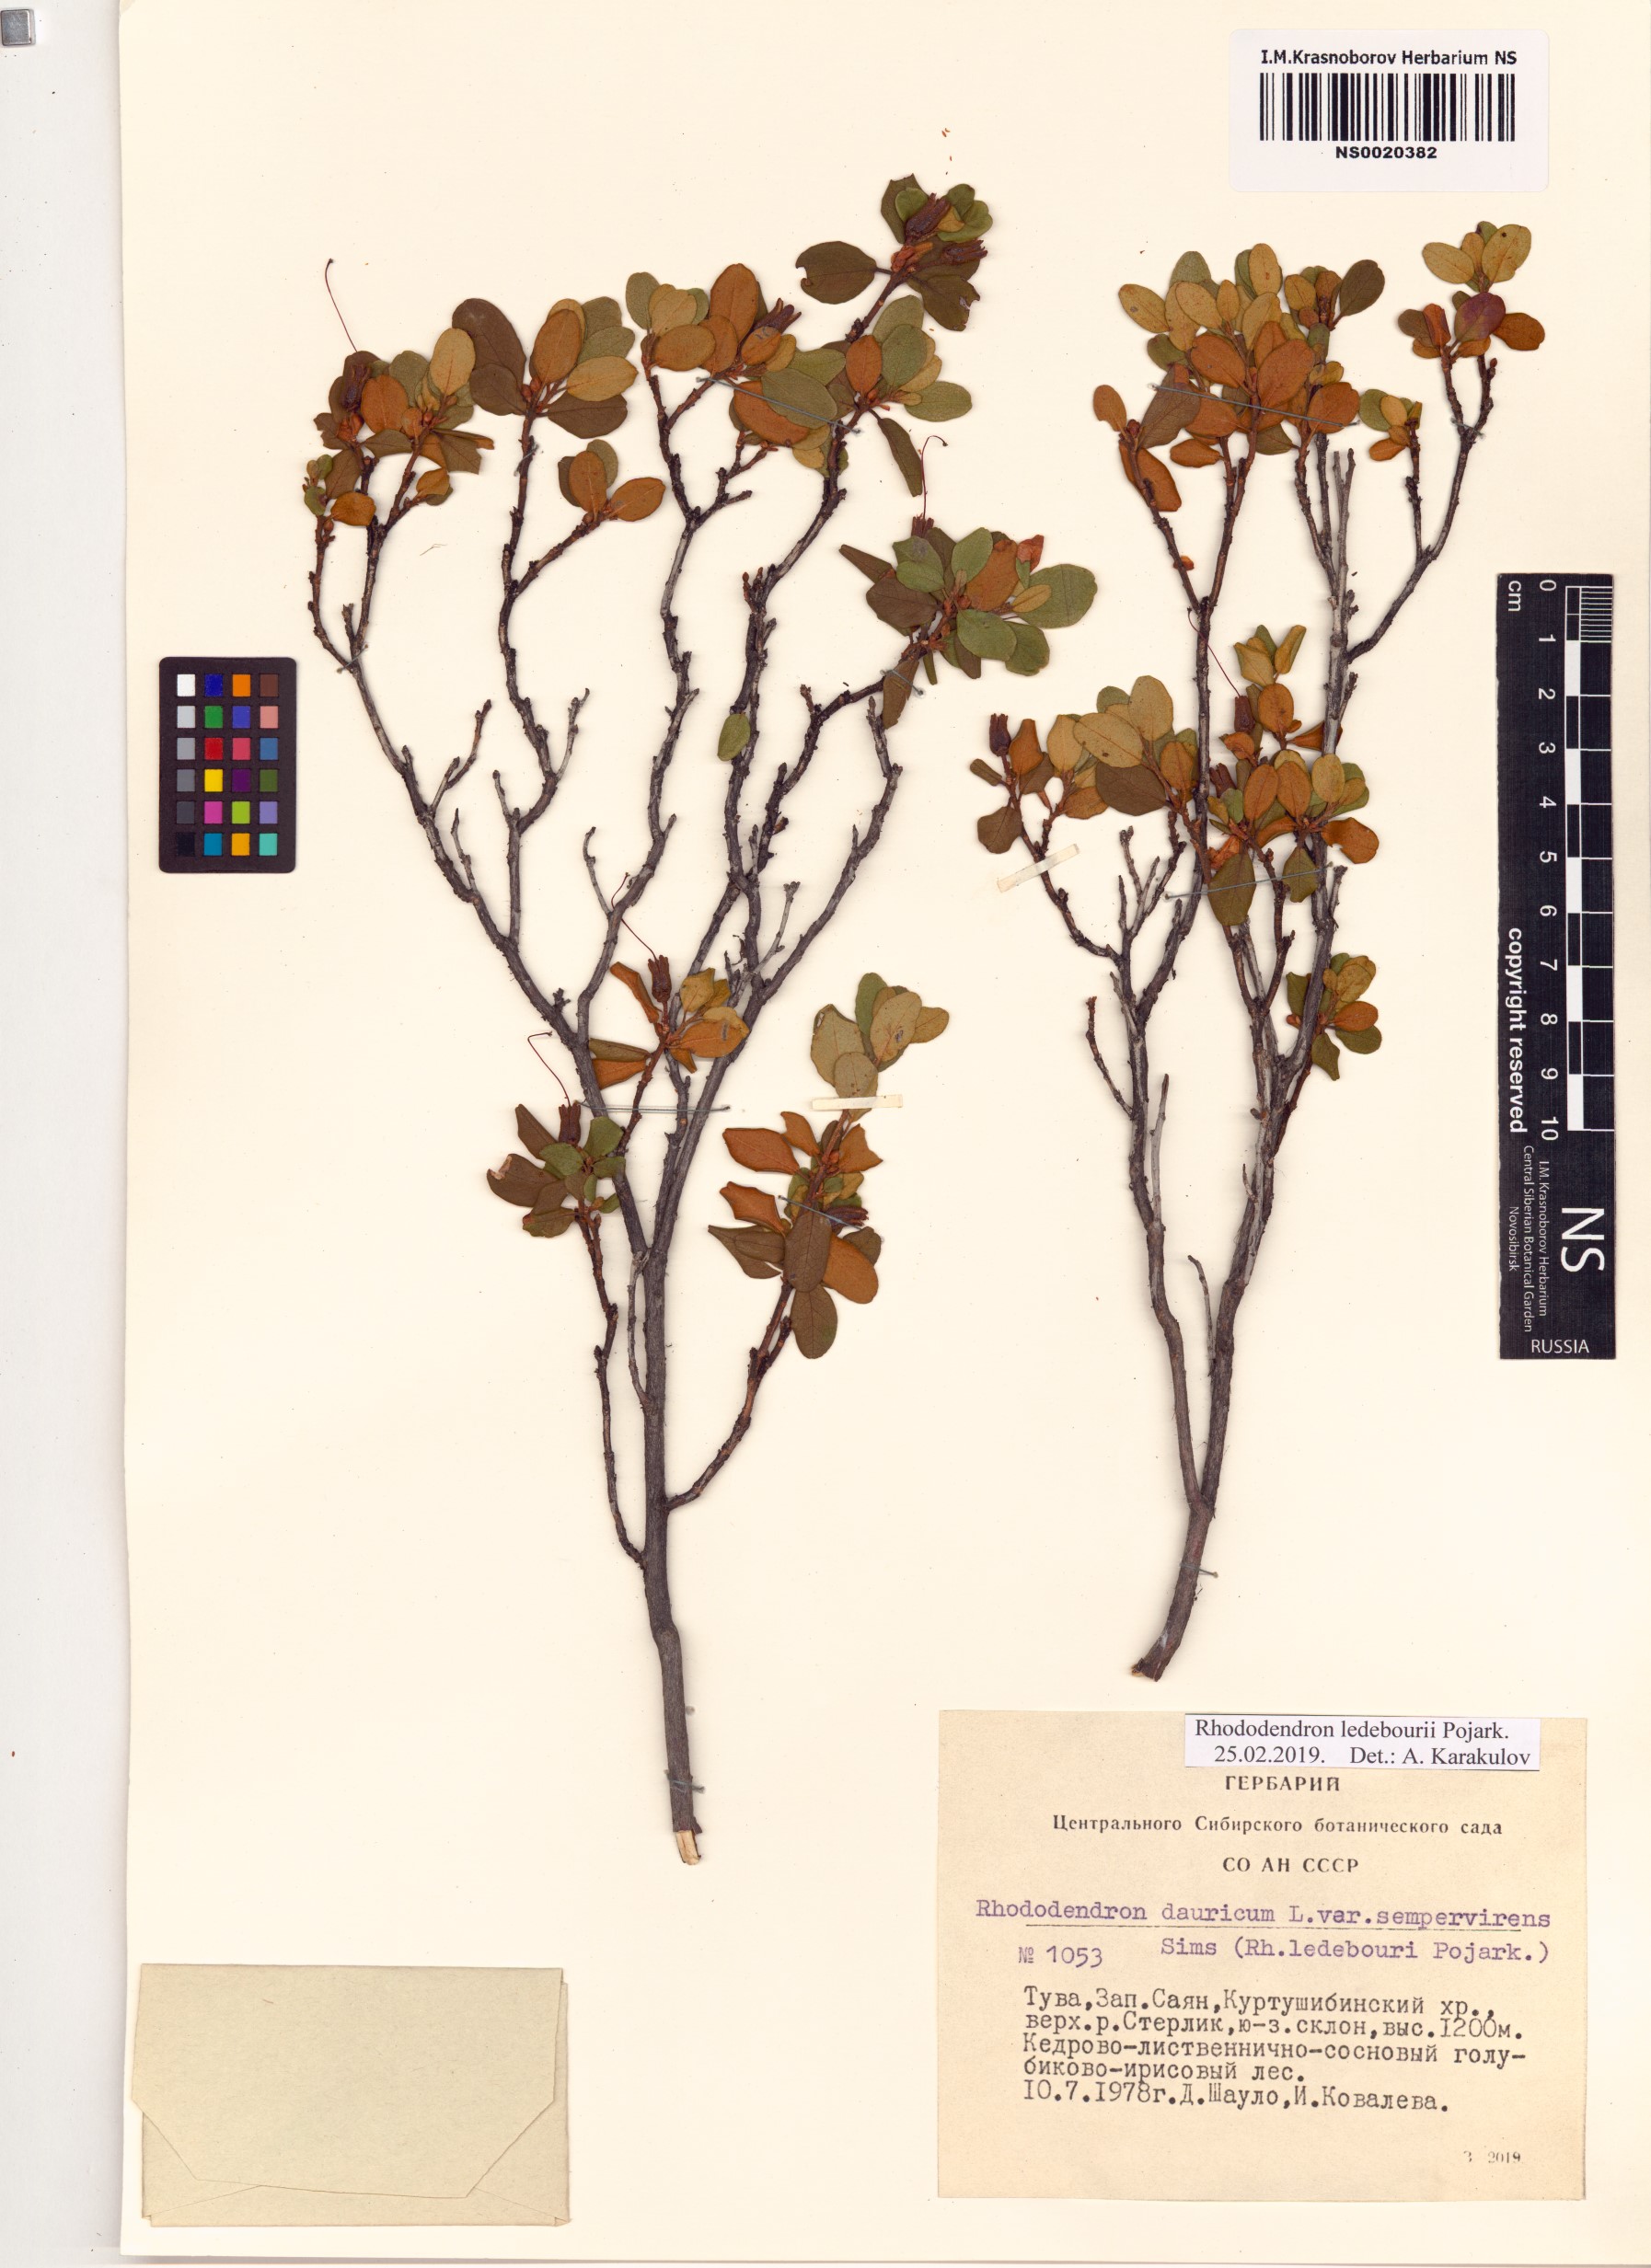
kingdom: Plantae
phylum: Tracheophyta
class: Magnoliopsida
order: Ericales
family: Ericaceae
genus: Rhododendron
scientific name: Rhododendron dauricum
